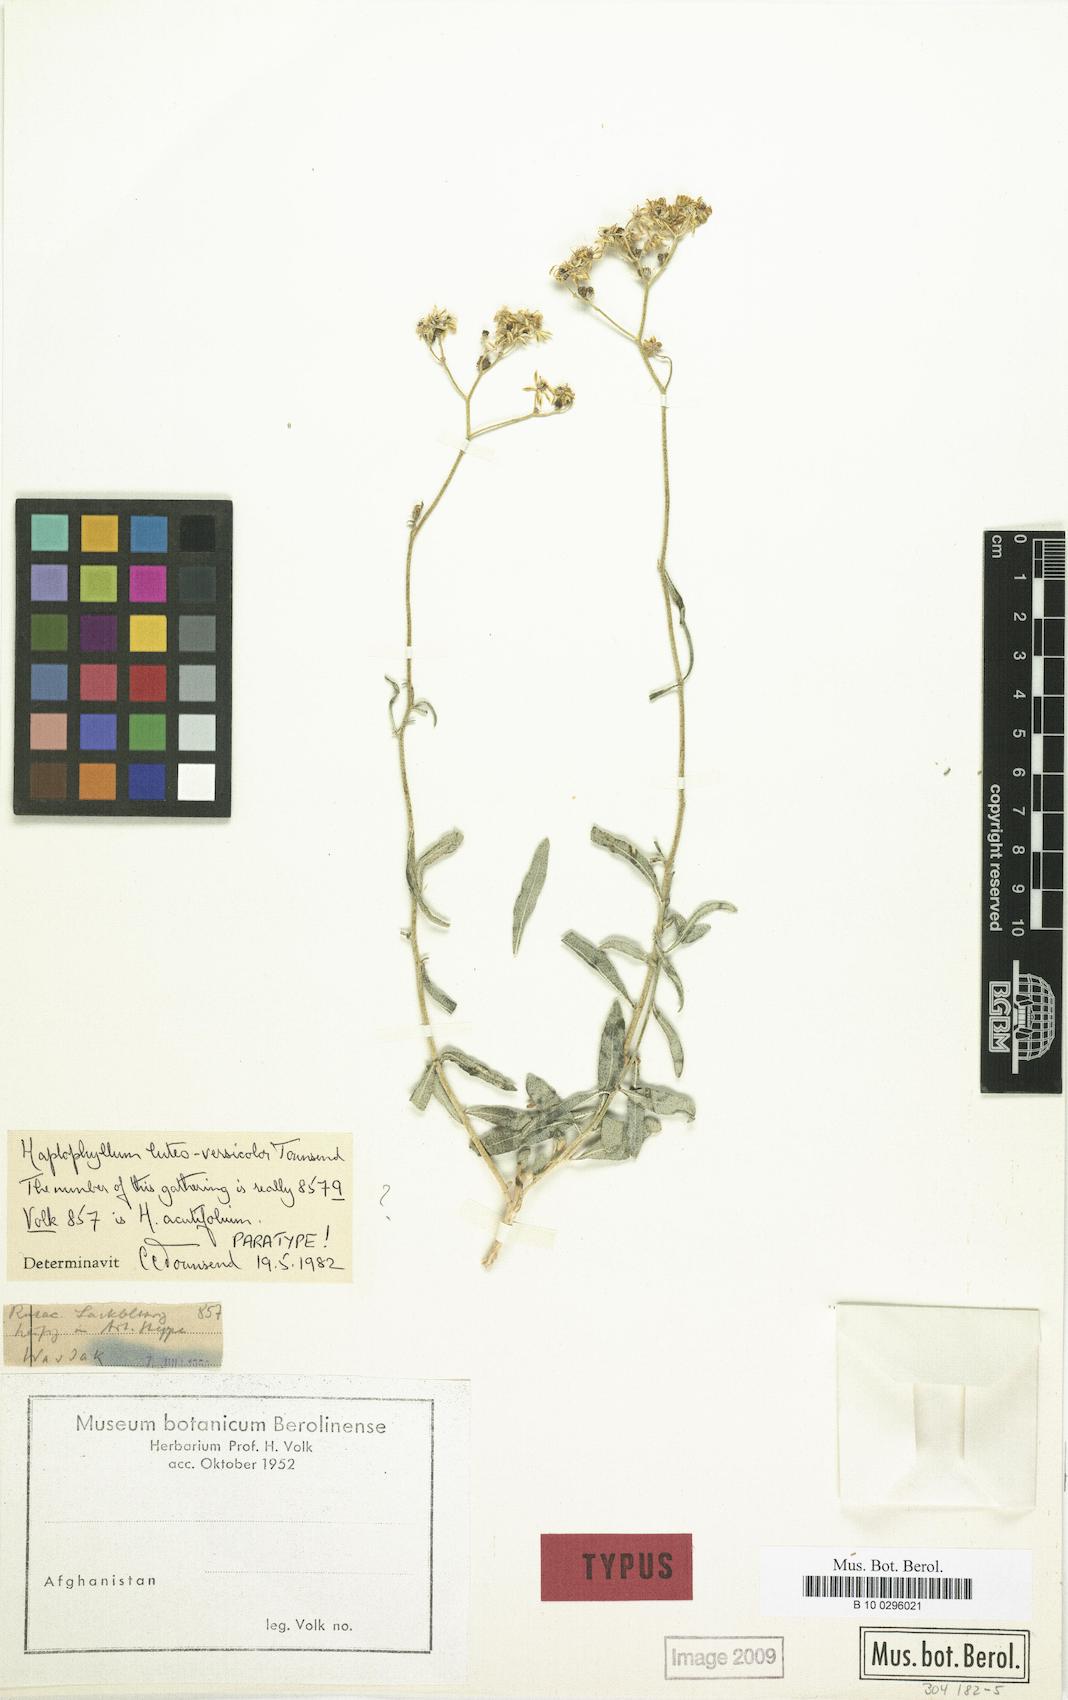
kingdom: Plantae
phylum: Tracheophyta
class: Magnoliopsida
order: Sapindales
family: Rutaceae
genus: Haplophyllum
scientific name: Haplophyllum luteoversicolor
